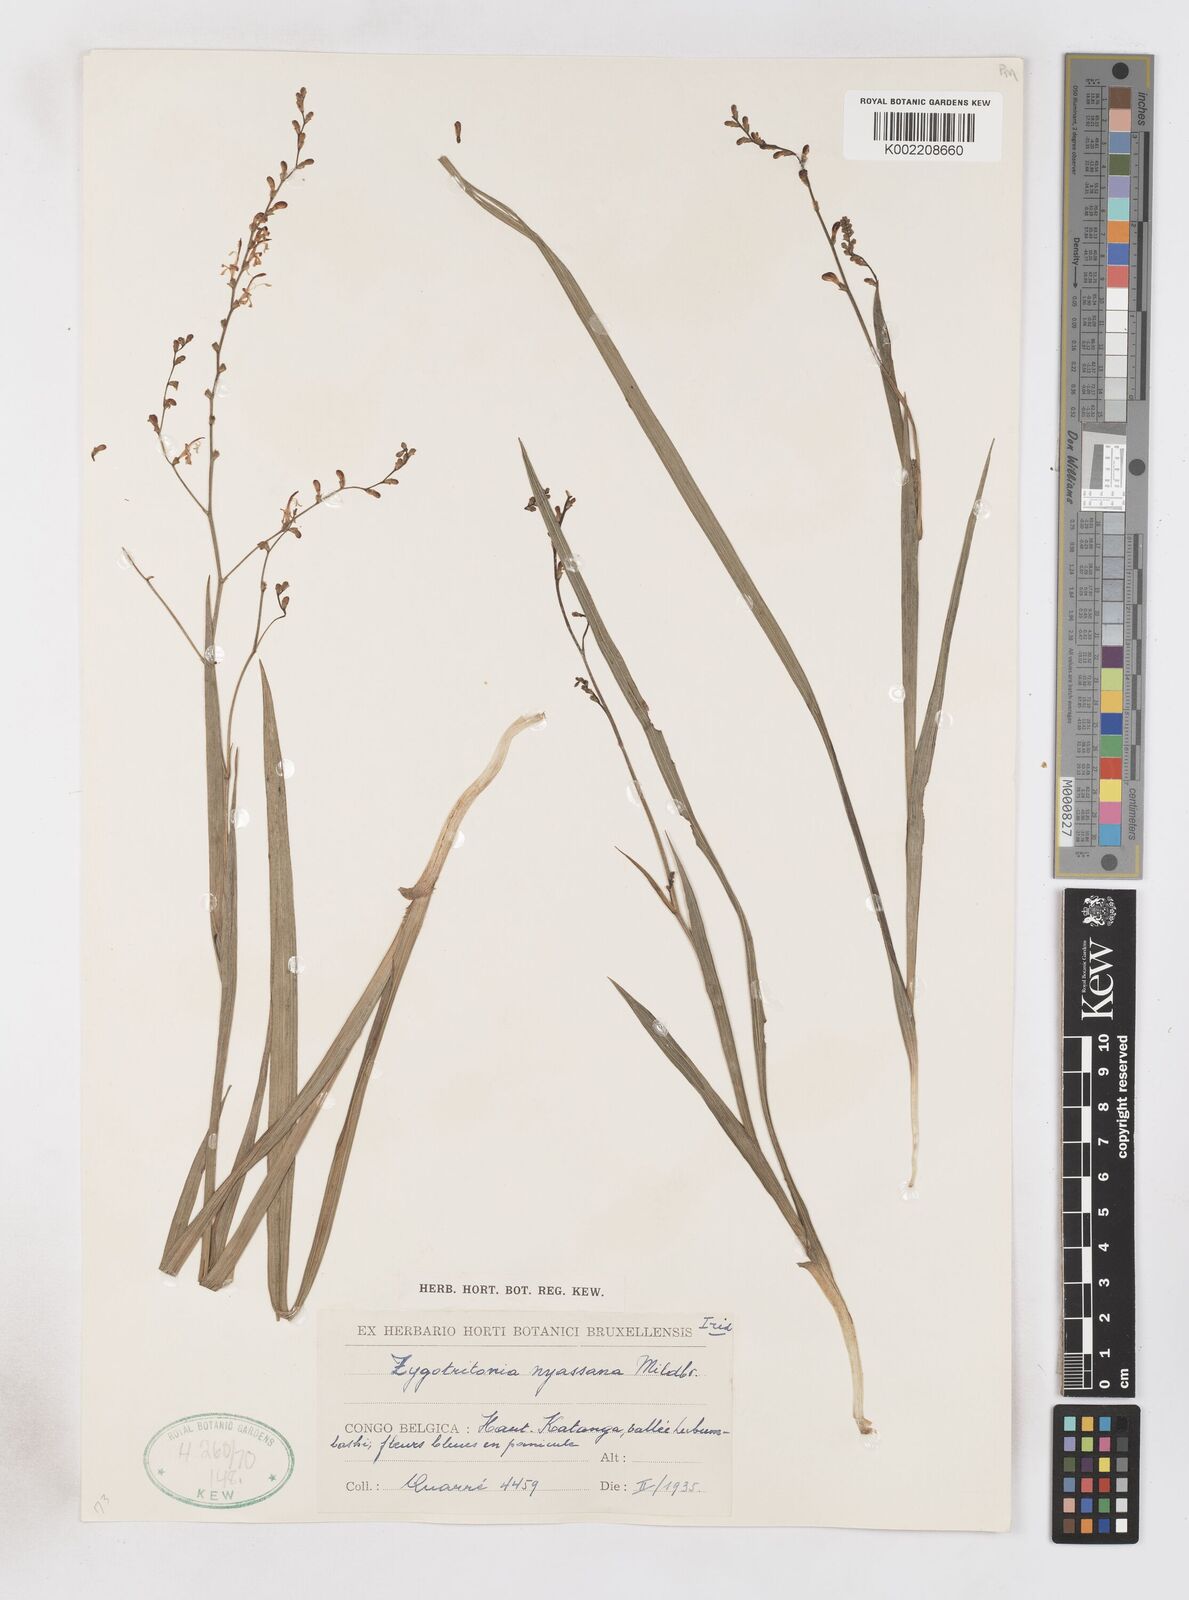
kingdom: Plantae
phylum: Tracheophyta
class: Liliopsida
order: Asparagales
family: Iridaceae
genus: Zygotritonia
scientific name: Zygotritonia nyassana
